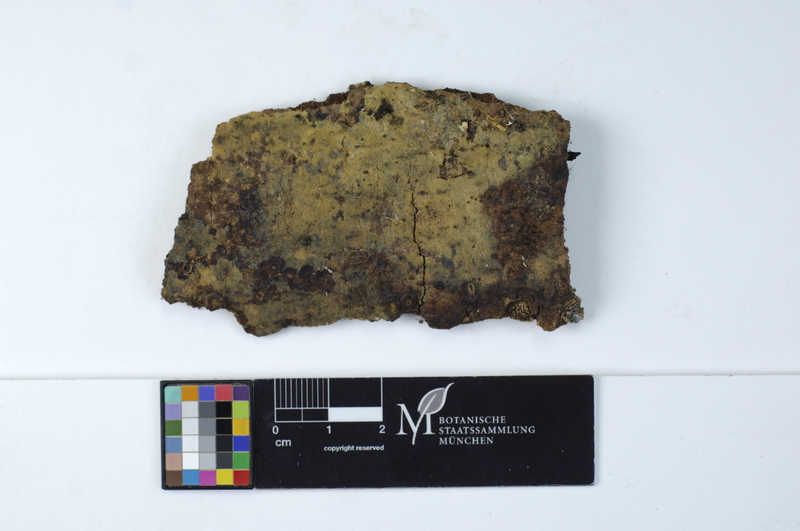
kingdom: Plantae
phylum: Tracheophyta
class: Magnoliopsida
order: Fagales
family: Fagaceae
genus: Fagus
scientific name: Fagus sylvatica
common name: Beech
